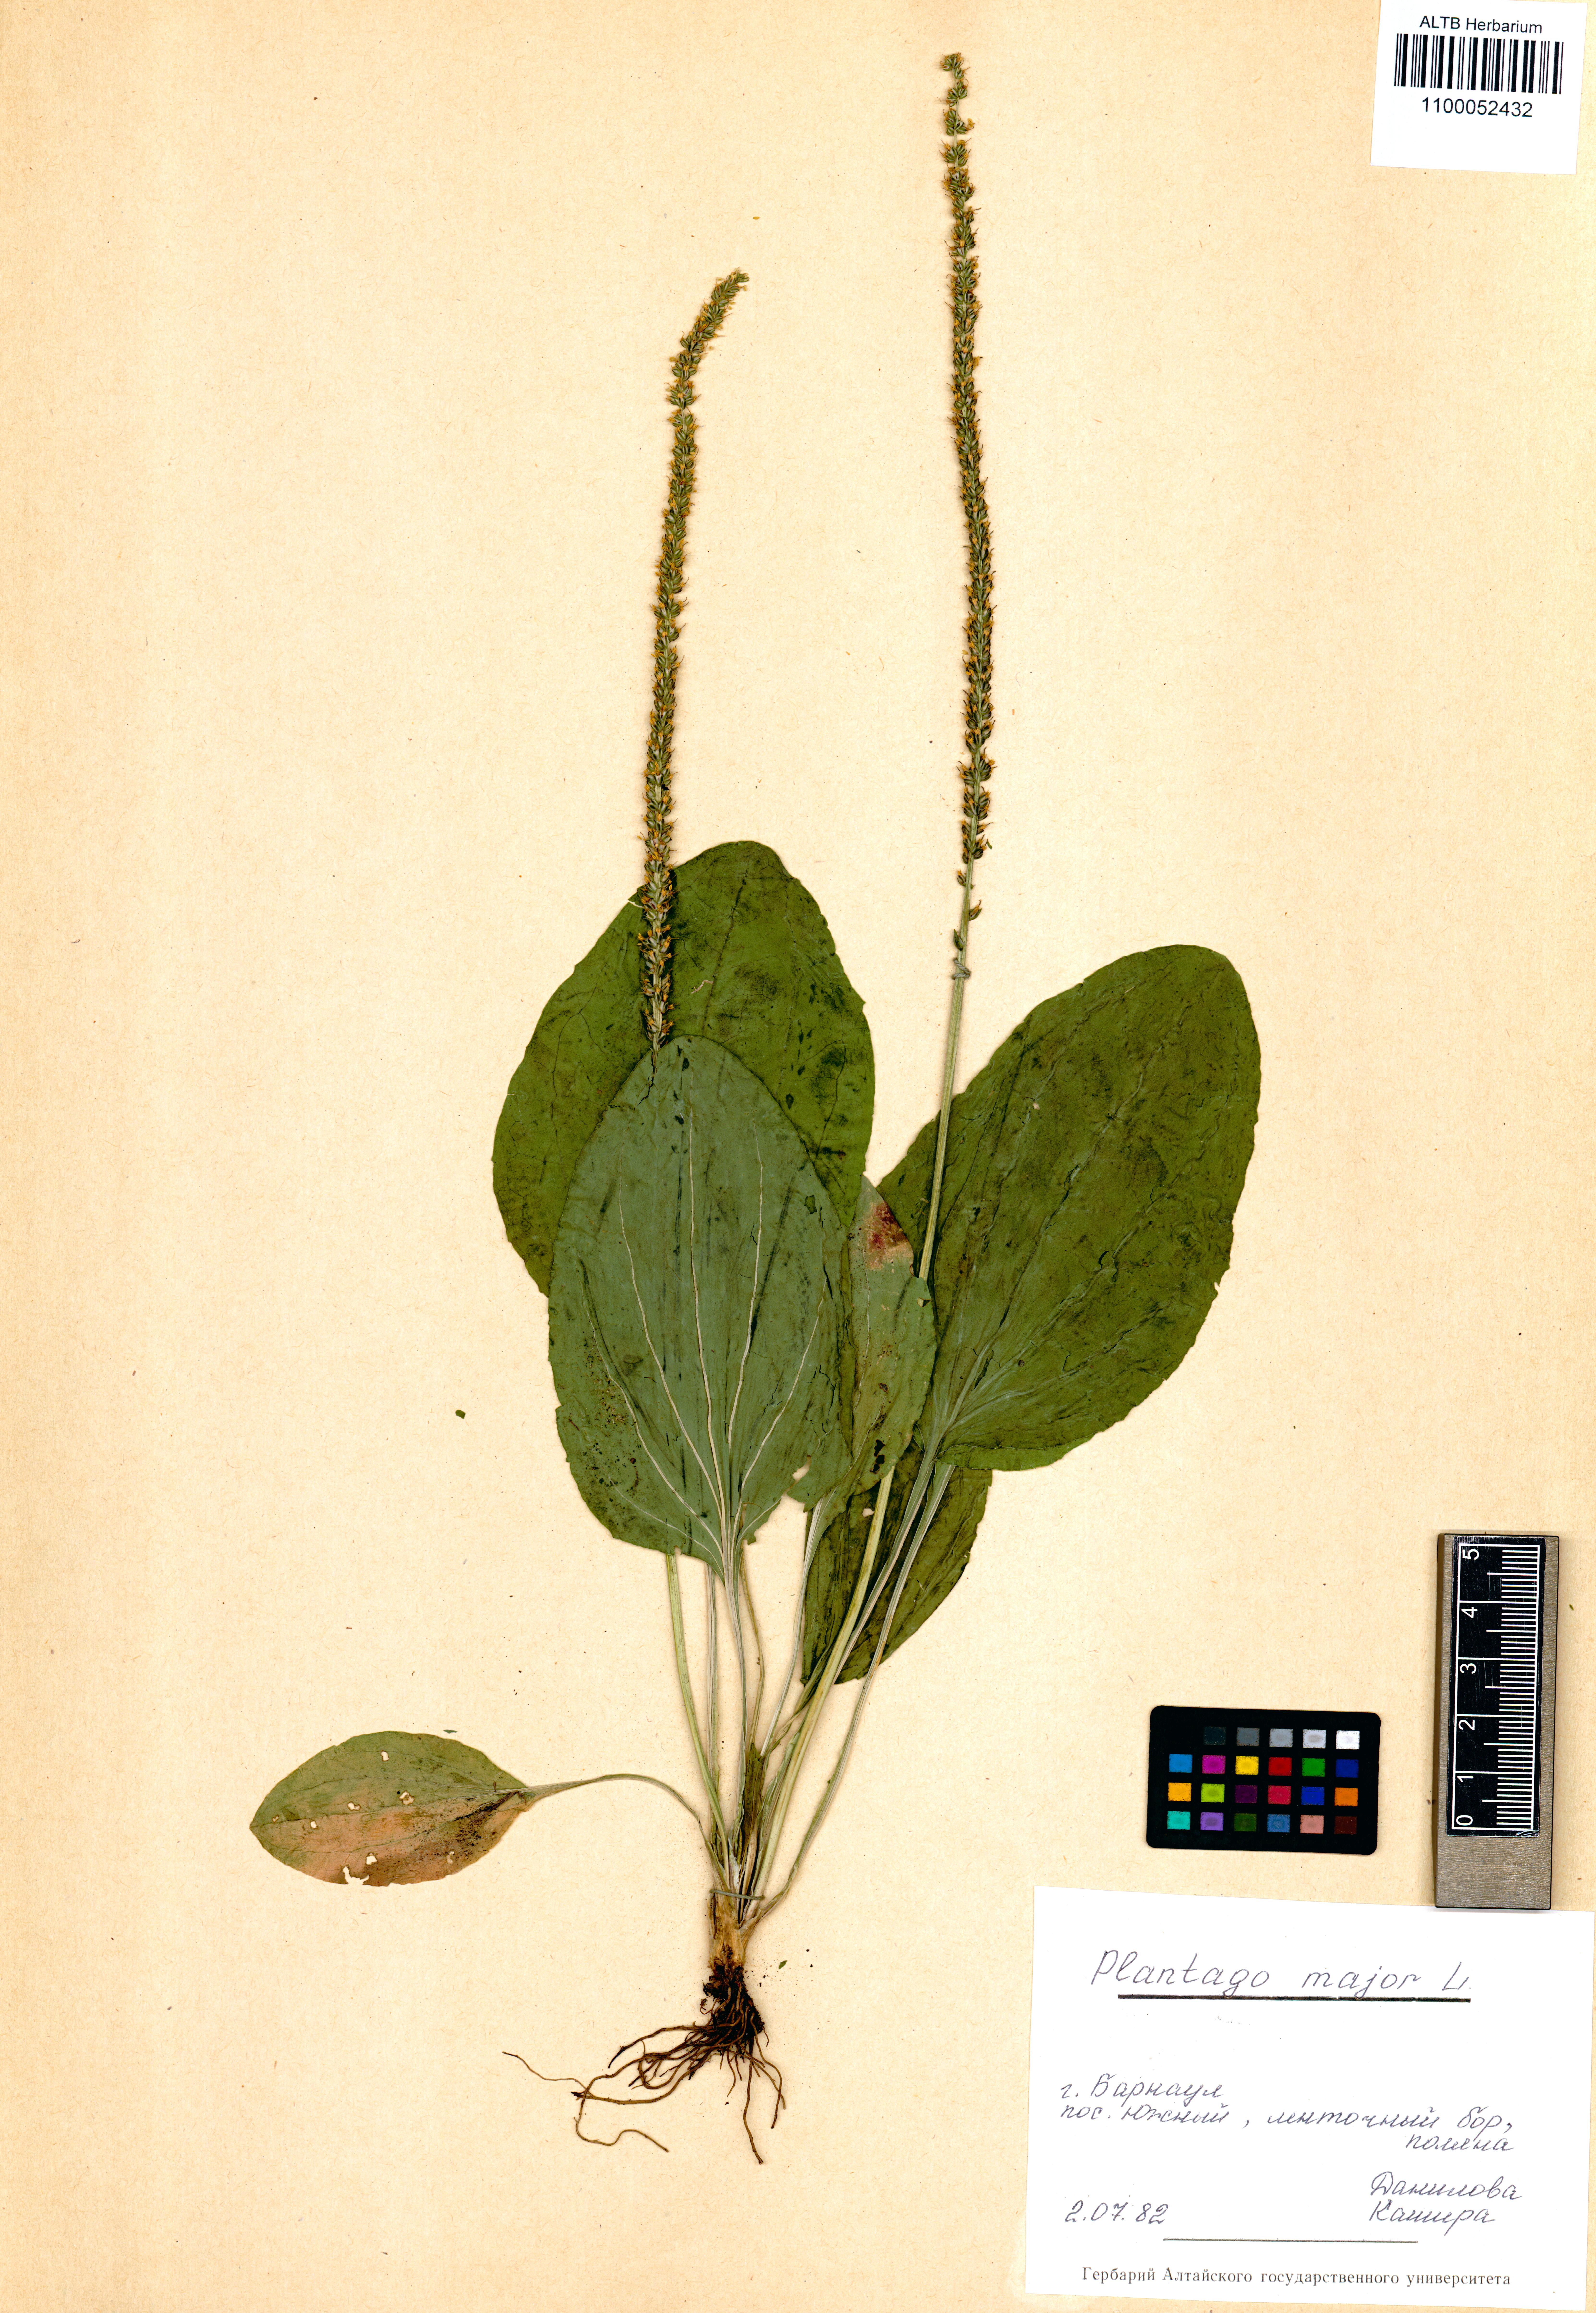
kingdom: Plantae
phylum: Tracheophyta
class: Magnoliopsida
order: Lamiales
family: Plantaginaceae
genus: Plantago
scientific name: Plantago major
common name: Common plantain
